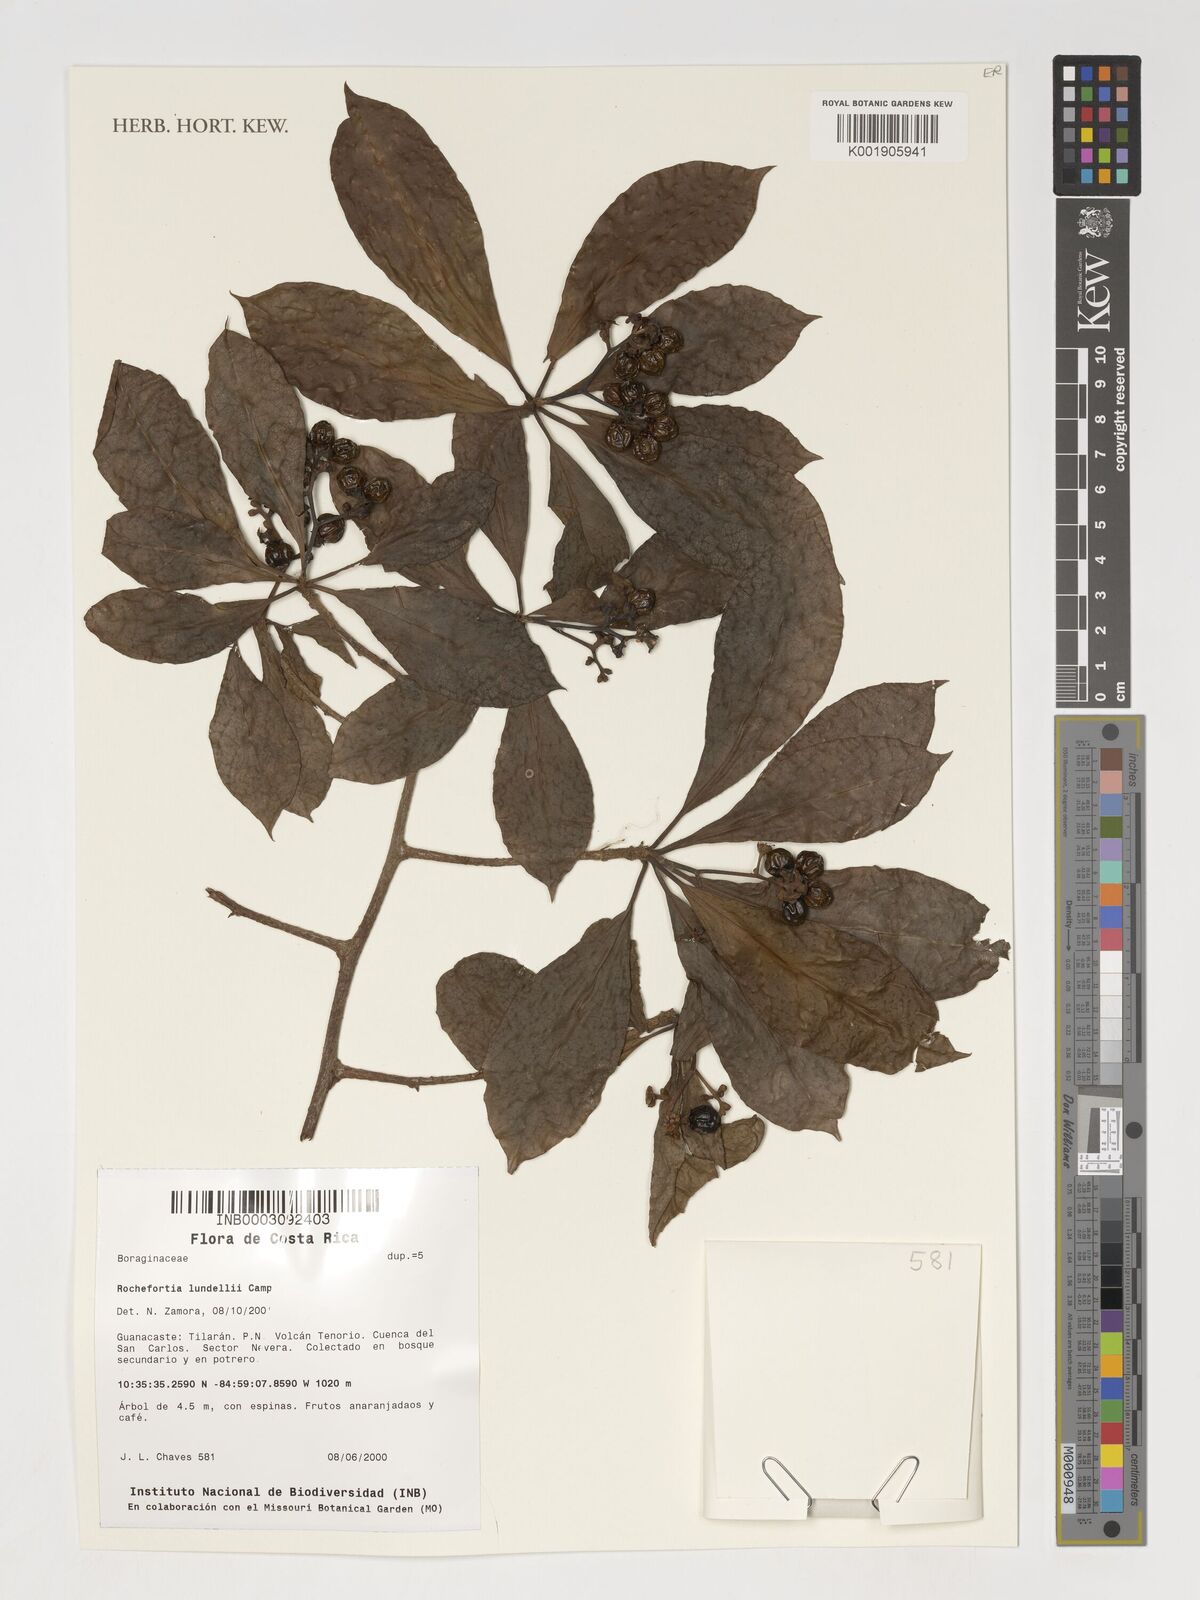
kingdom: Plantae
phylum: Tracheophyta
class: Magnoliopsida
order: Boraginales
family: Ehretiaceae
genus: Rochefortia
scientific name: Rochefortia lundellii
